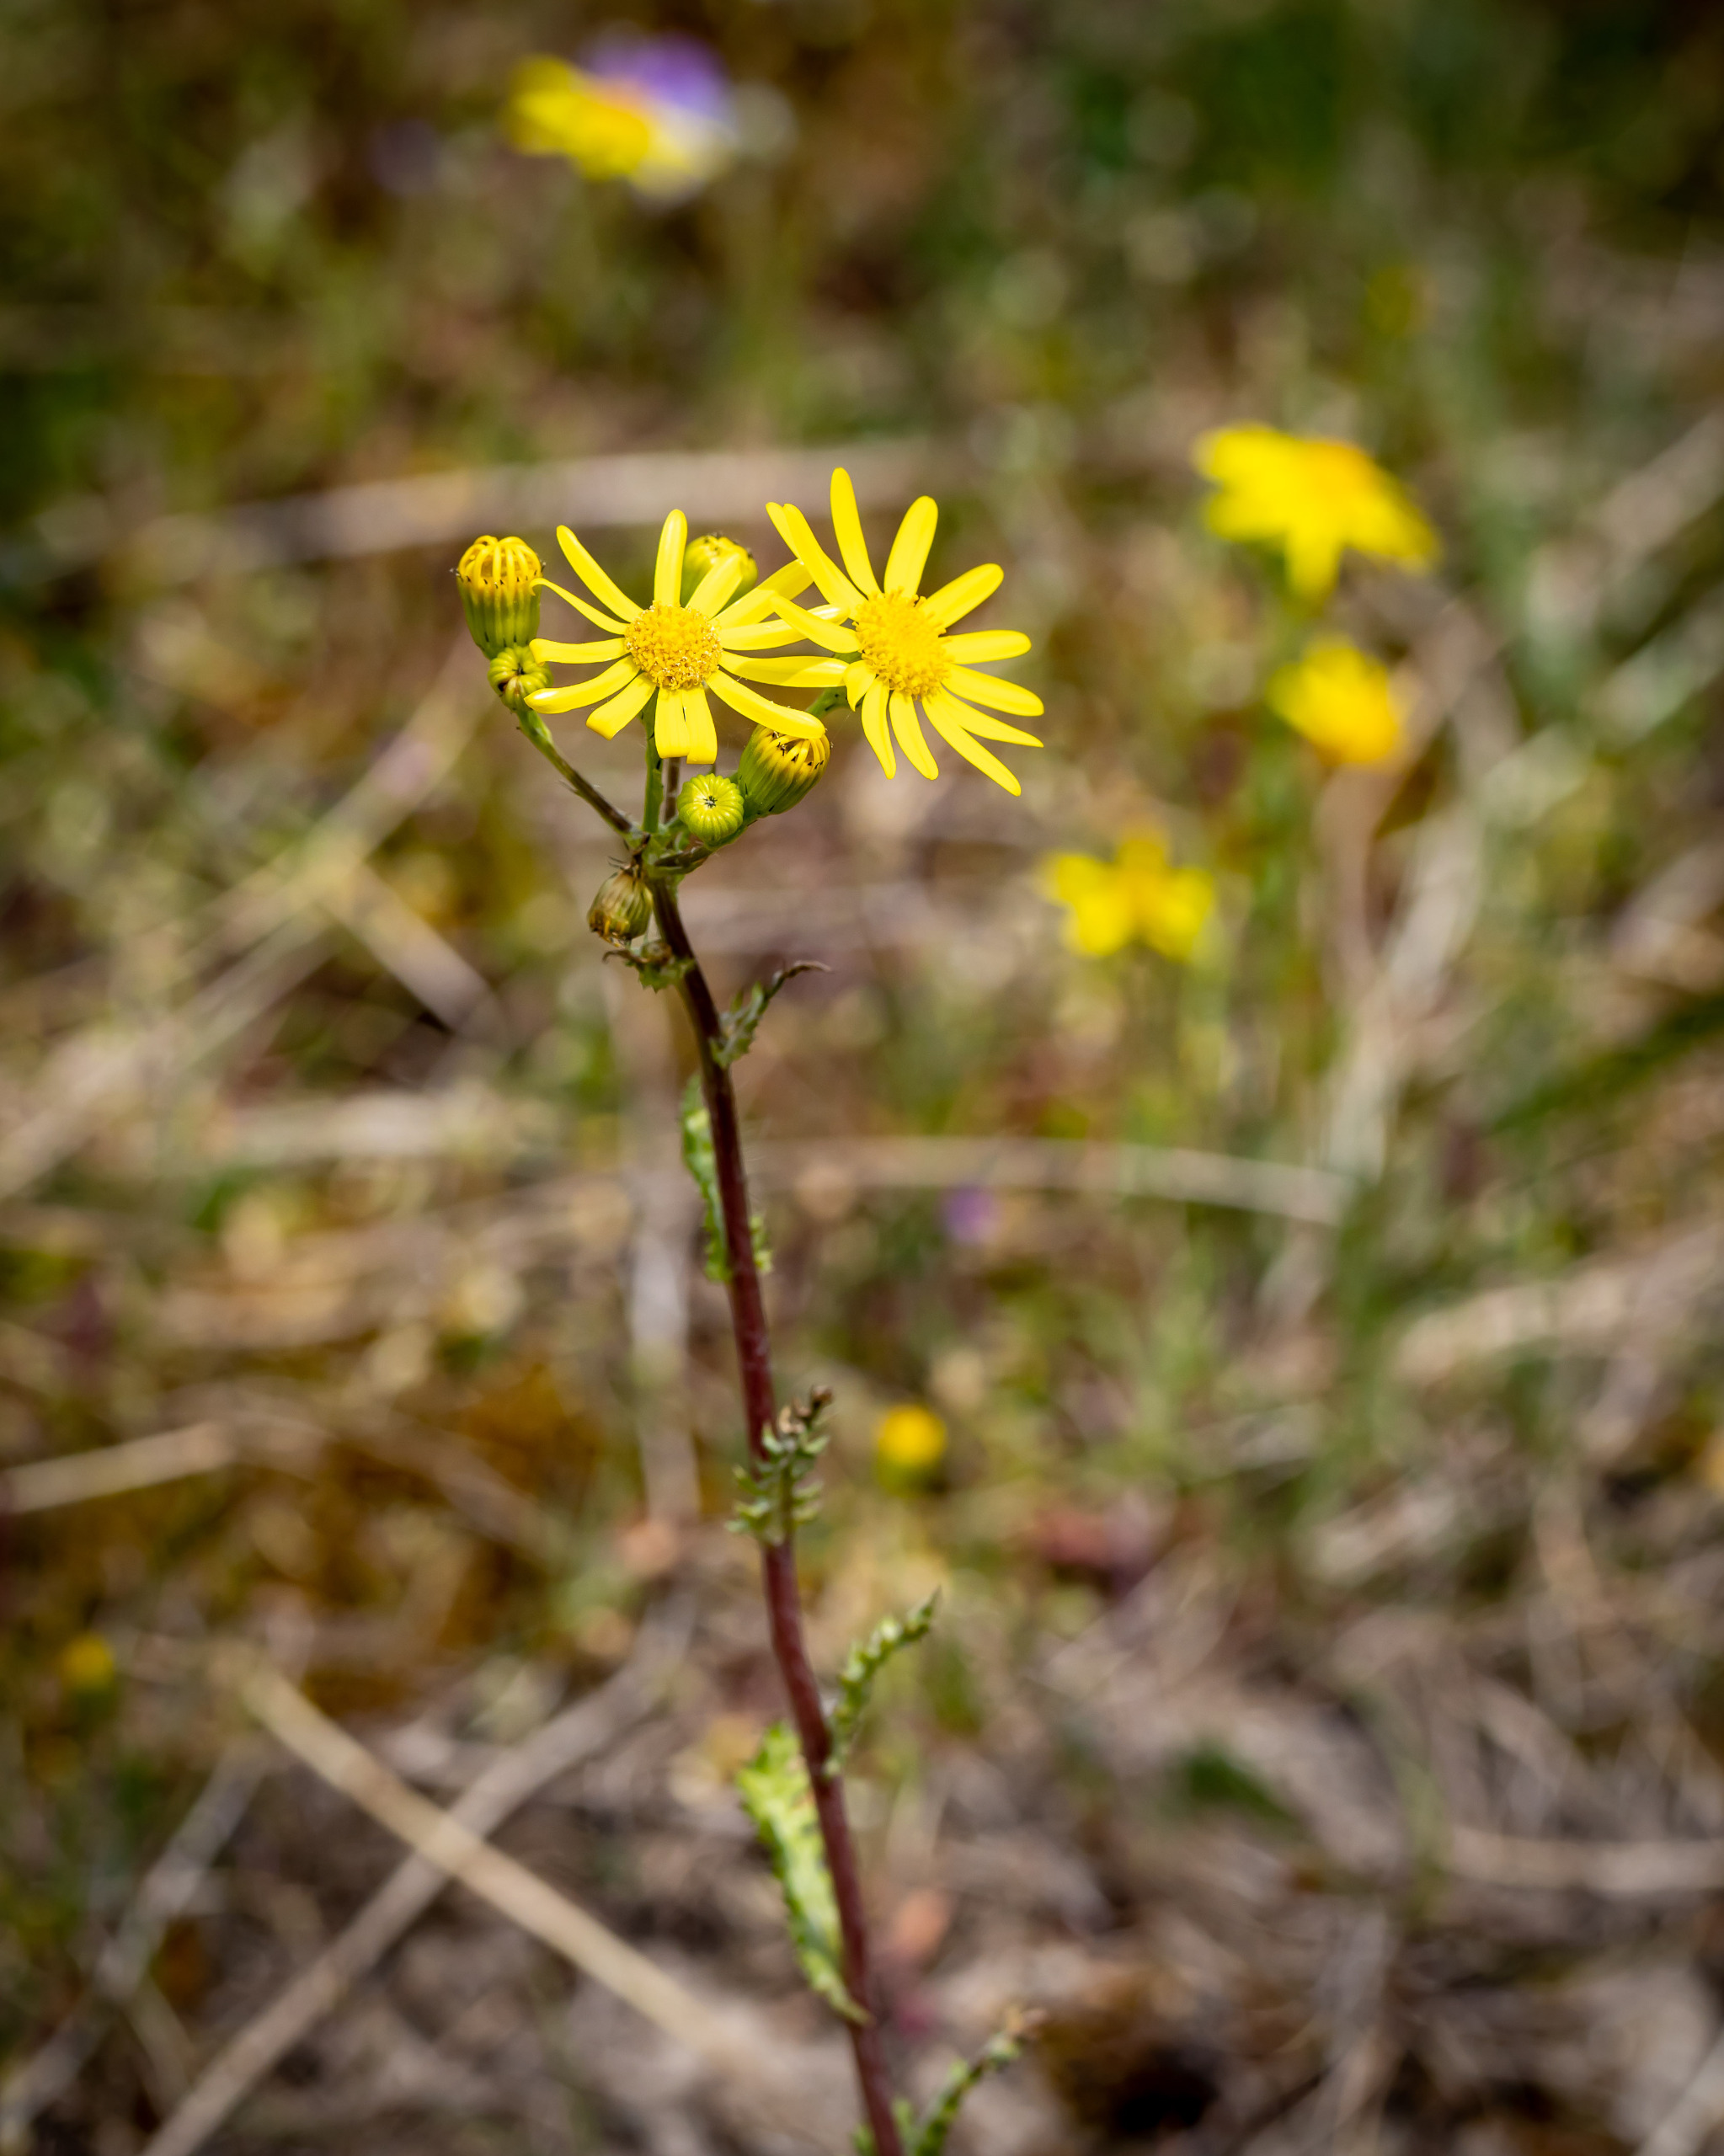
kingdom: Plantae
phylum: Tracheophyta
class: Magnoliopsida
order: Asterales
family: Asteraceae
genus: Senecio
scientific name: Senecio leucanthemifolius
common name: Vår-brandbæger
